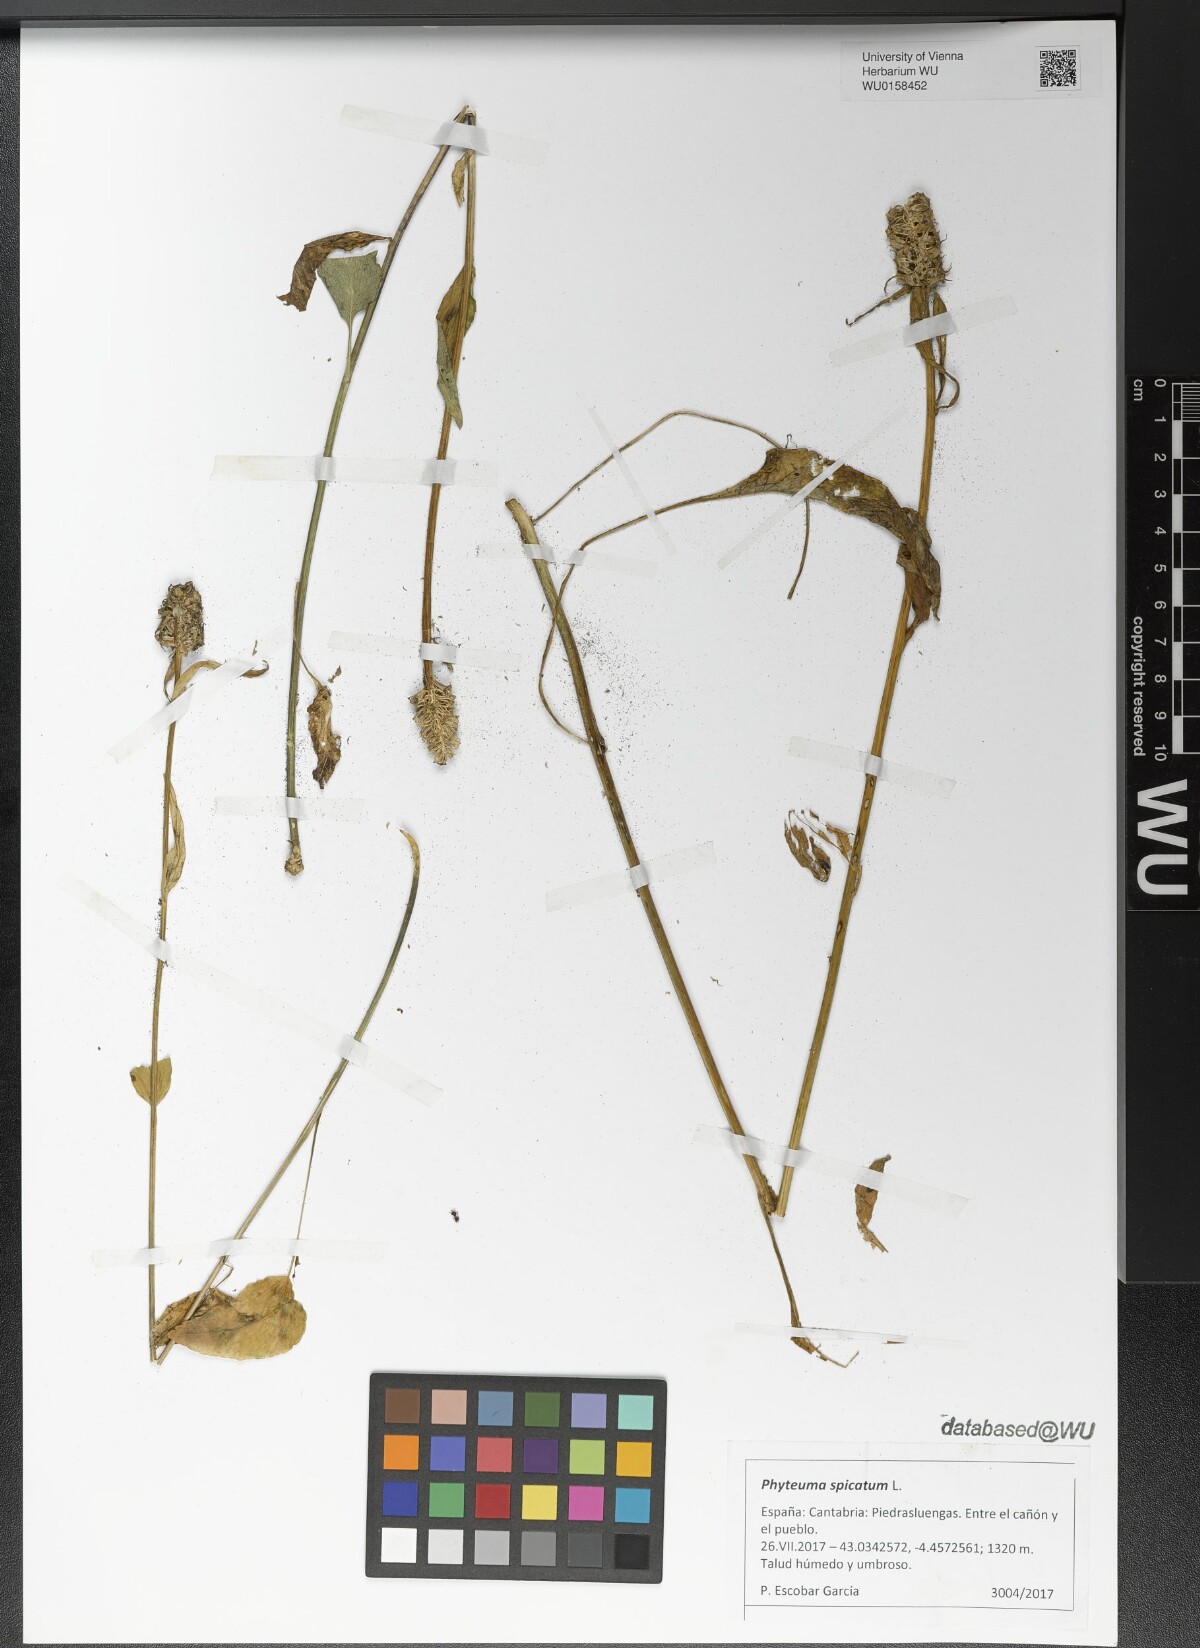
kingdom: Plantae
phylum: Tracheophyta
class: Magnoliopsida
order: Asterales
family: Campanulaceae
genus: Phyteuma
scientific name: Phyteuma spicatum
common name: Spiked rampion
